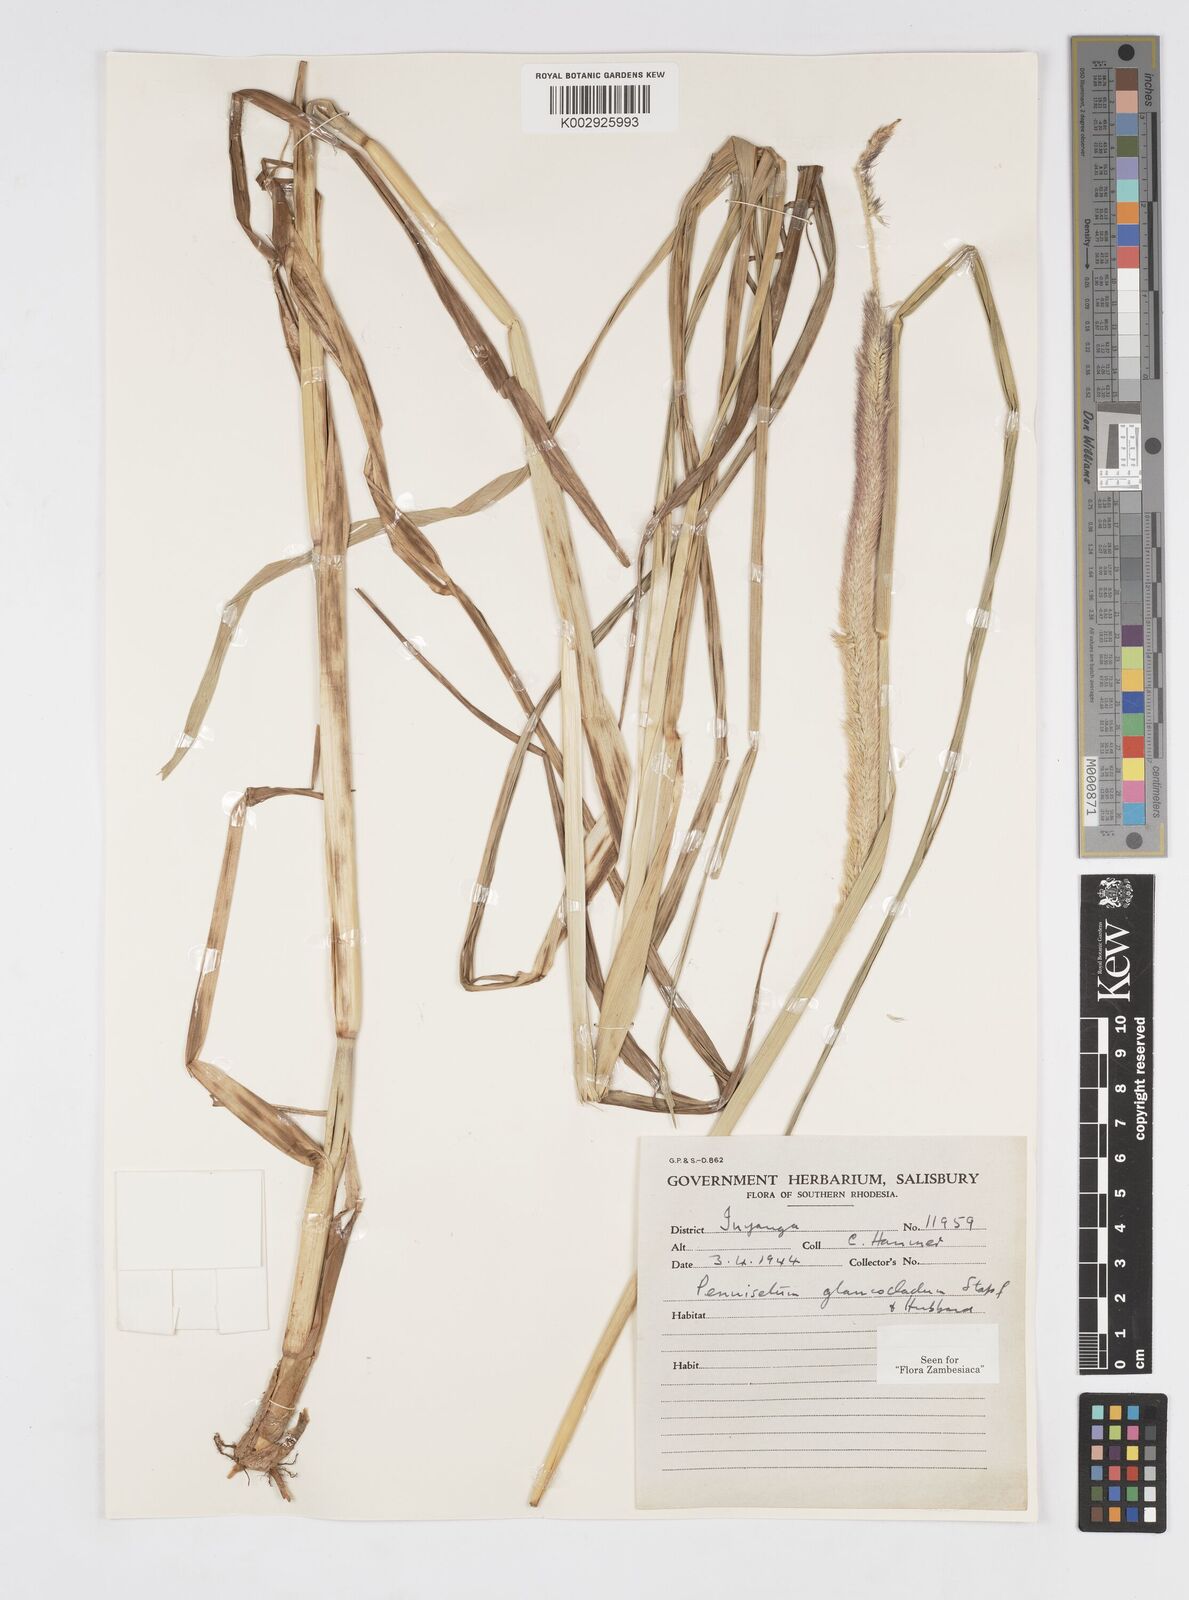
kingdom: Plantae
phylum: Tracheophyta
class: Liliopsida
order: Poales
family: Poaceae
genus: Cenchrus
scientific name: Cenchrus caudatus
